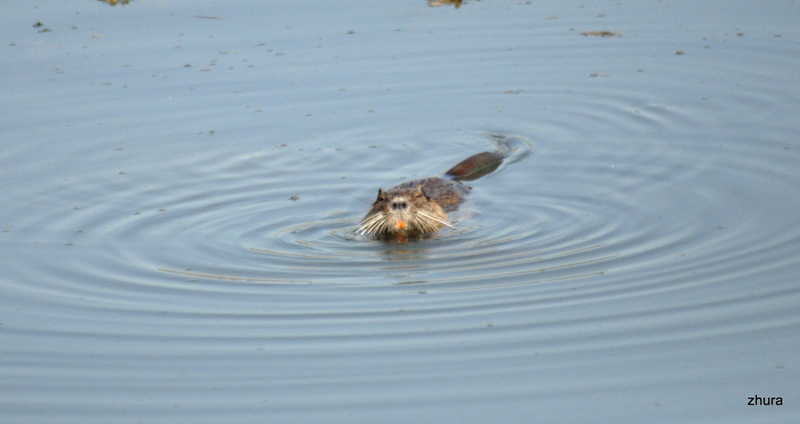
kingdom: Animalia
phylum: Chordata
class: Mammalia
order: Rodentia
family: Myocastoridae
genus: Myocastor
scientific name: Myocastor coypus
